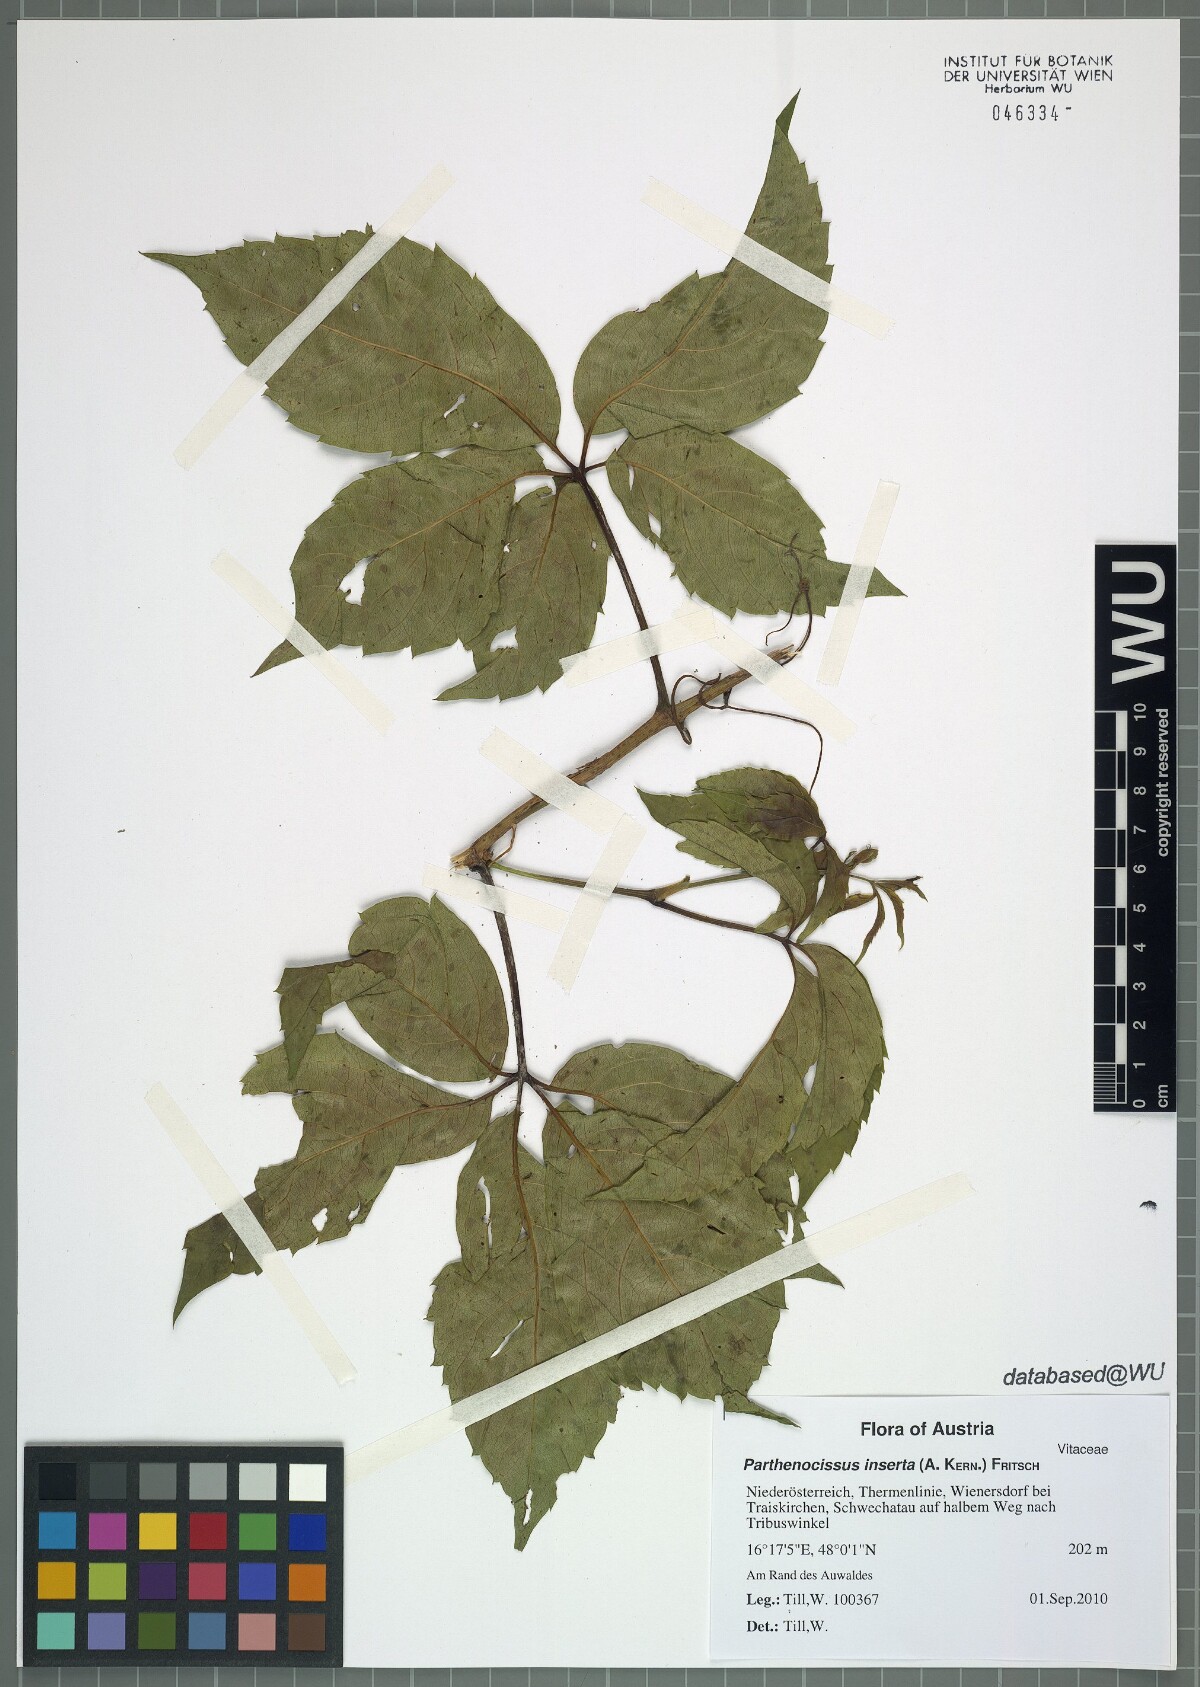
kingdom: Plantae
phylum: Tracheophyta
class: Magnoliopsida
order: Vitales
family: Vitaceae
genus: Parthenocissus
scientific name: Parthenocissus inserta
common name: False virginia-creeper
